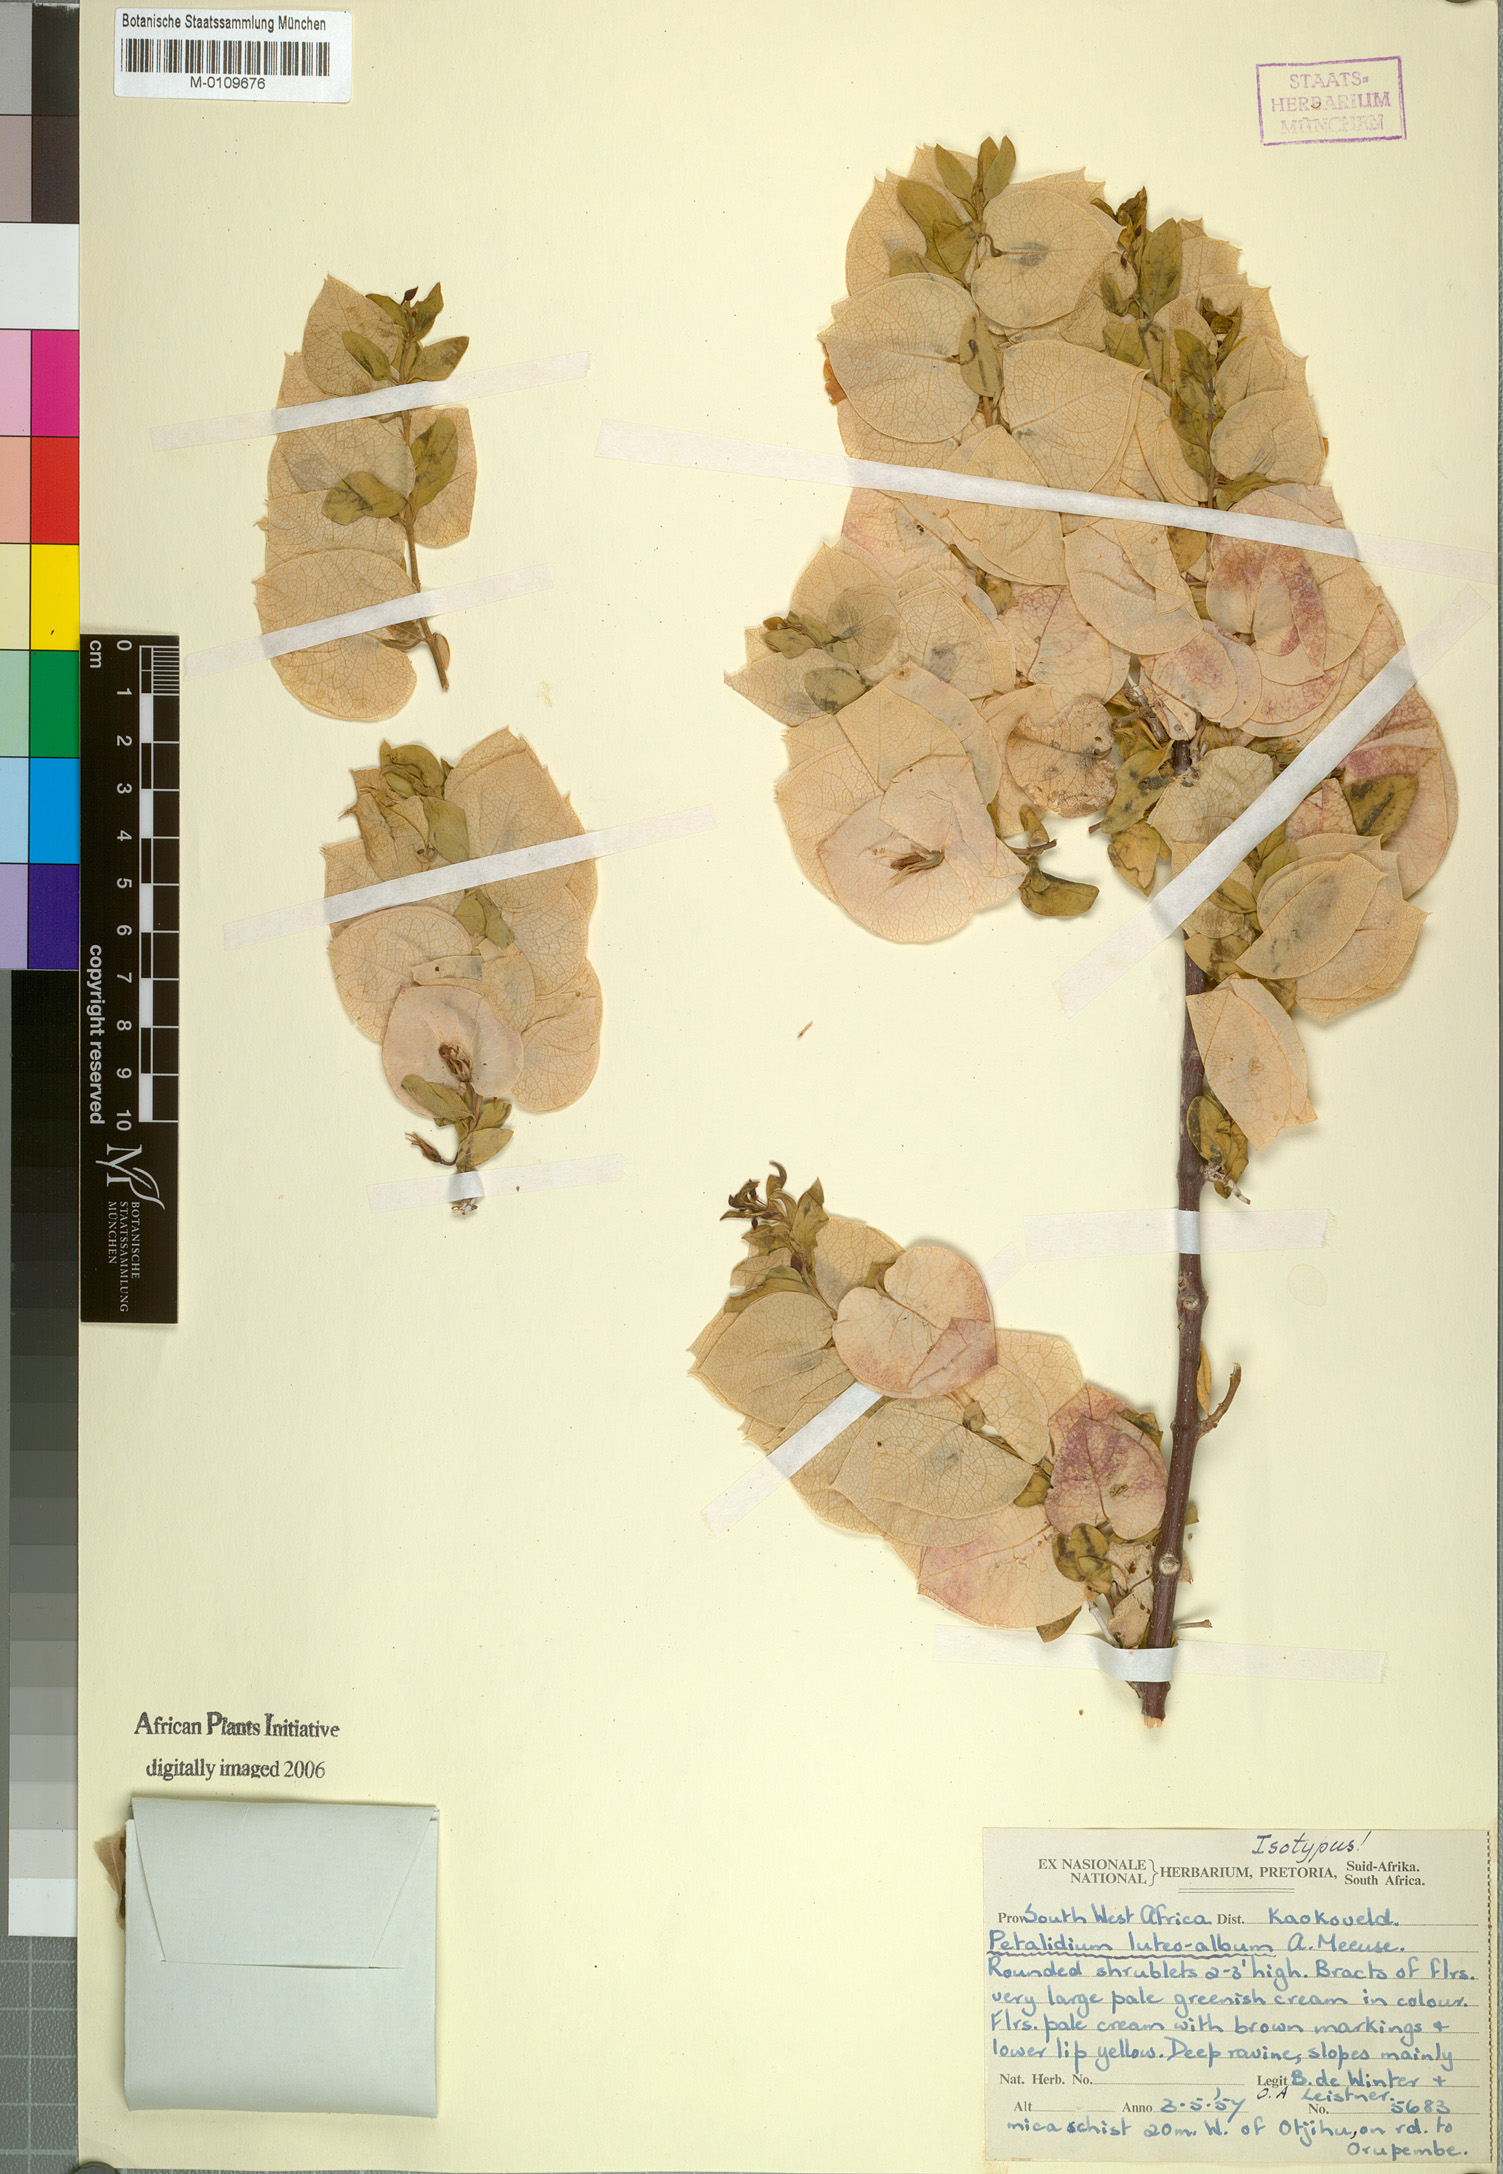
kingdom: Plantae
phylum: Tracheophyta
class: Magnoliopsida
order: Lamiales
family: Acanthaceae
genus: Petalidium
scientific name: Petalidium luteoalbum
